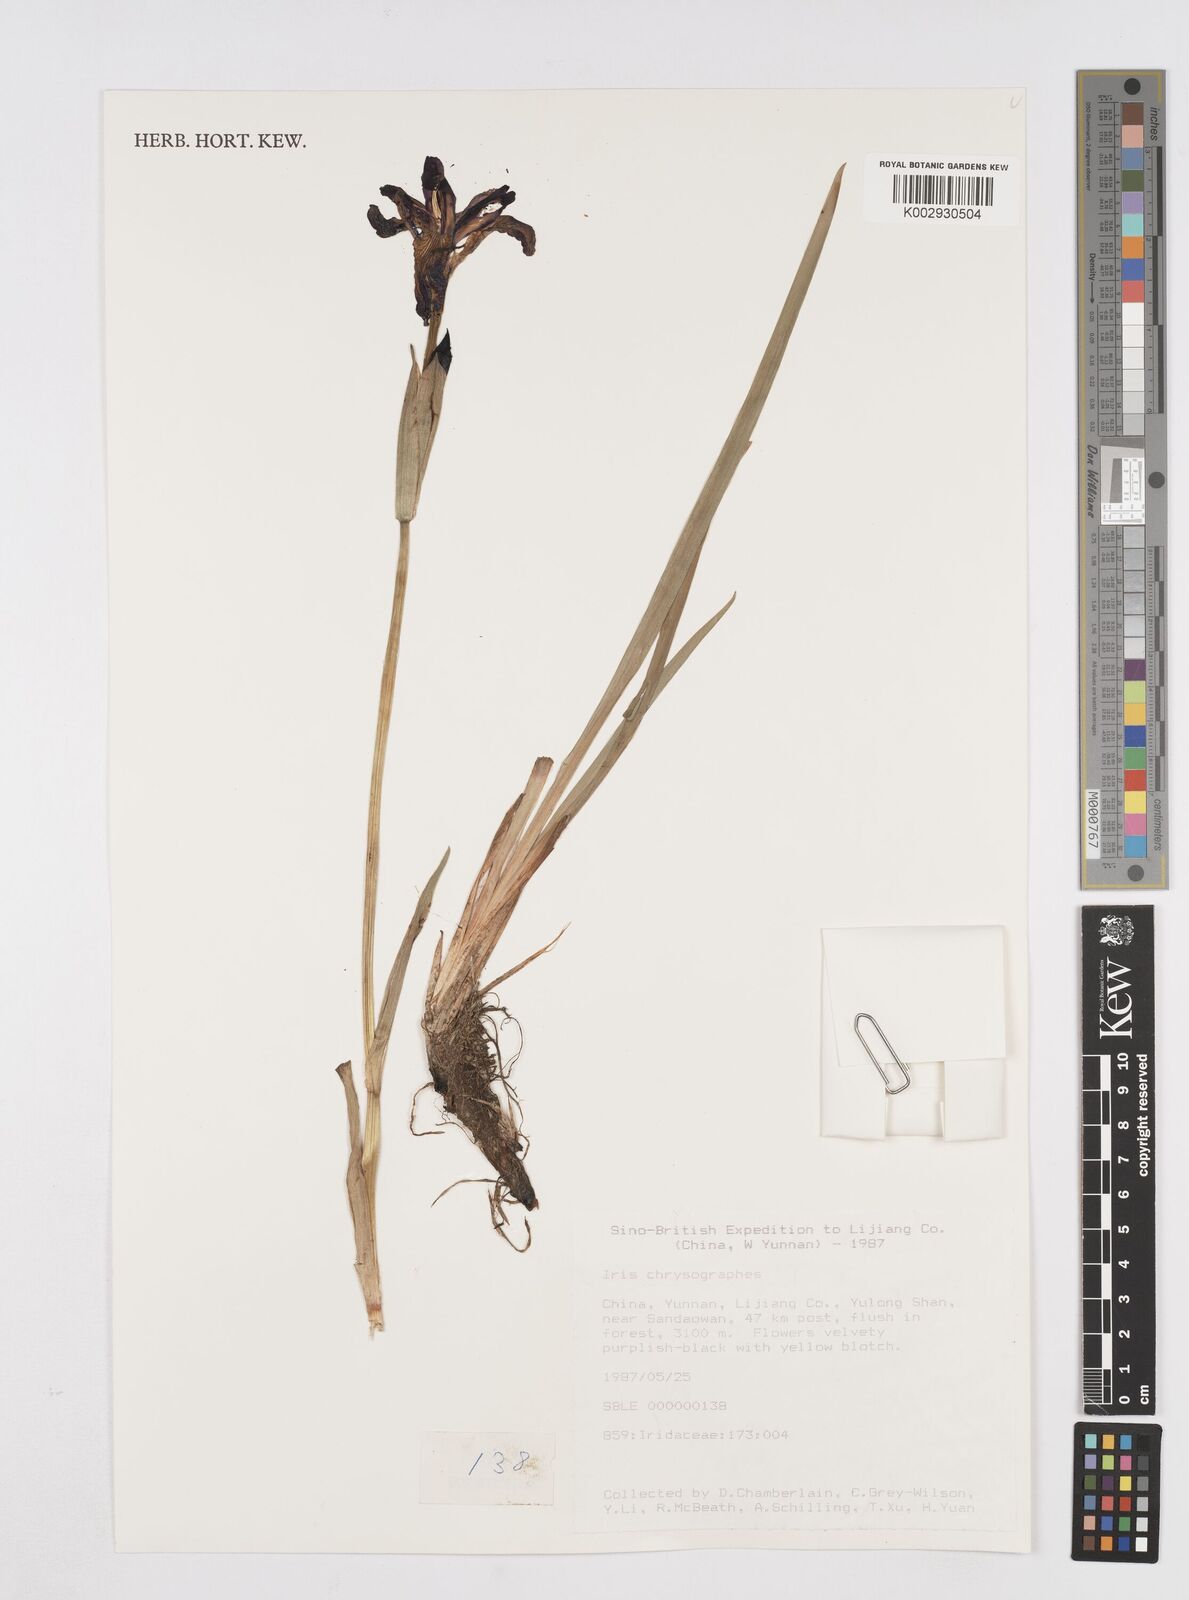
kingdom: Plantae
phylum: Tracheophyta
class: Liliopsida
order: Asparagales
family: Iridaceae
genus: Iris
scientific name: Iris chrysographes
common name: Gold-vein iris
